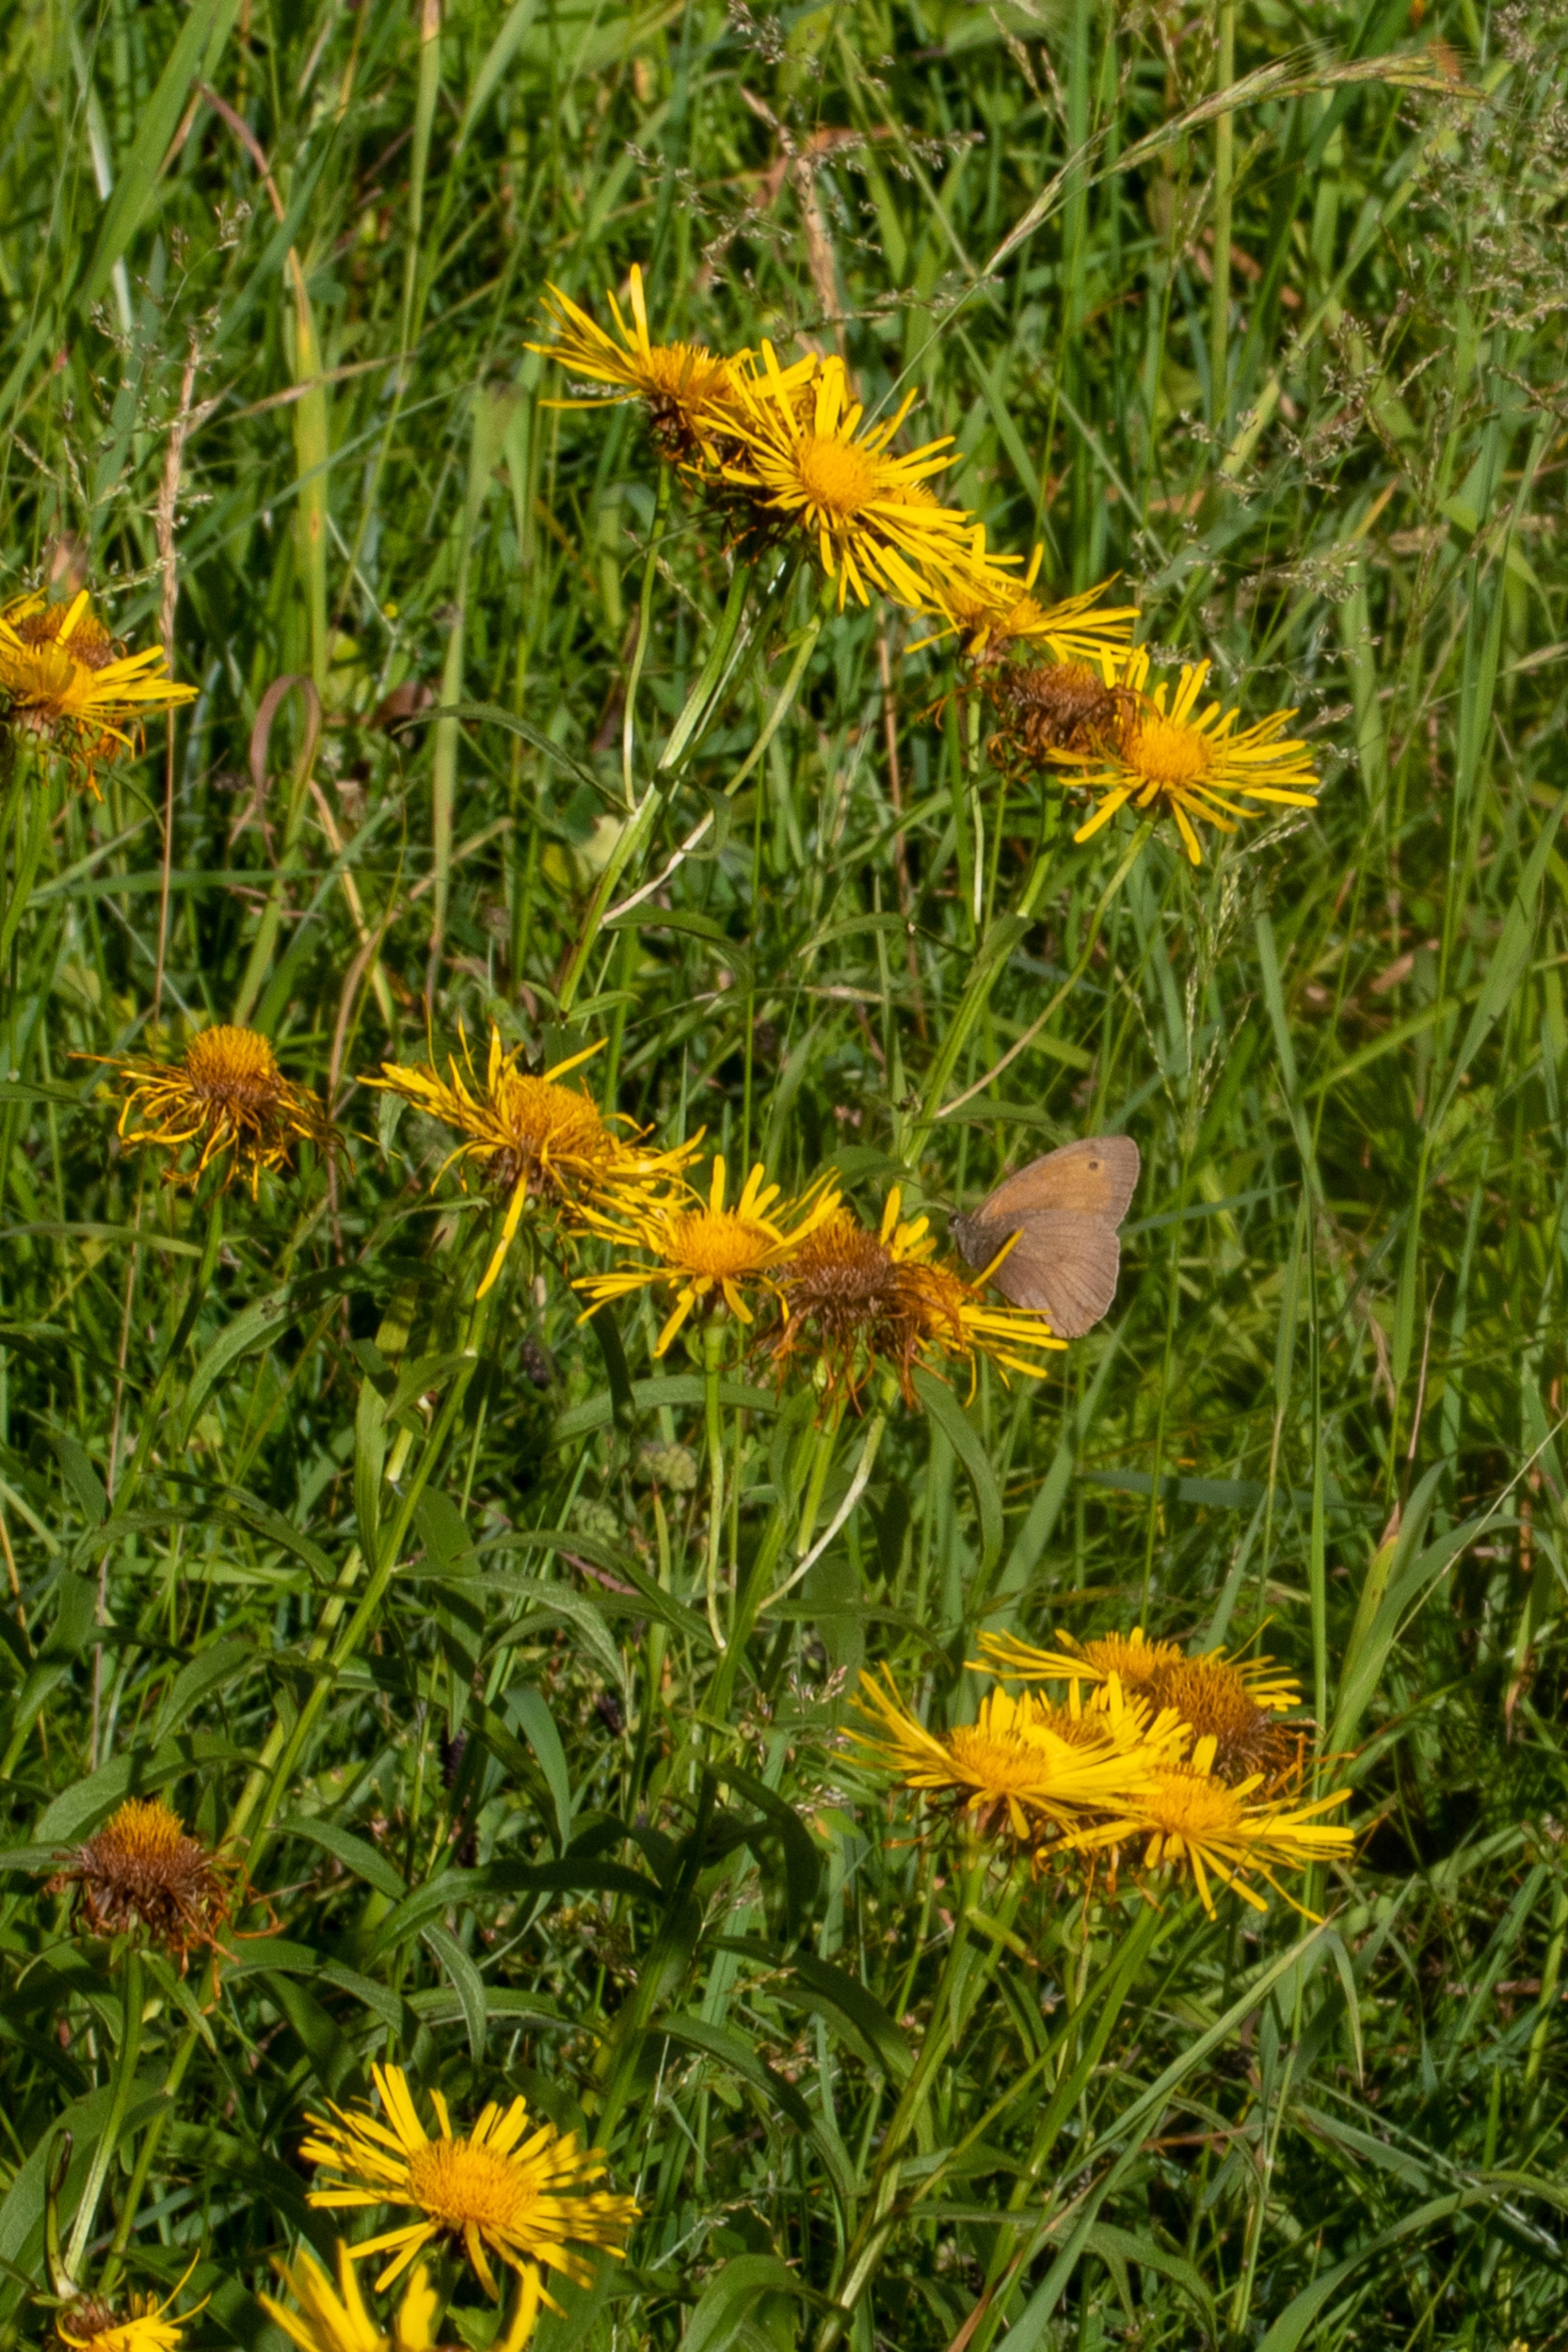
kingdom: Plantae
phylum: Tracheophyta
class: Magnoliopsida
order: Asterales
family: Asteraceae
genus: Pentanema
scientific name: Pentanema salicinum
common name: Pile-alant
